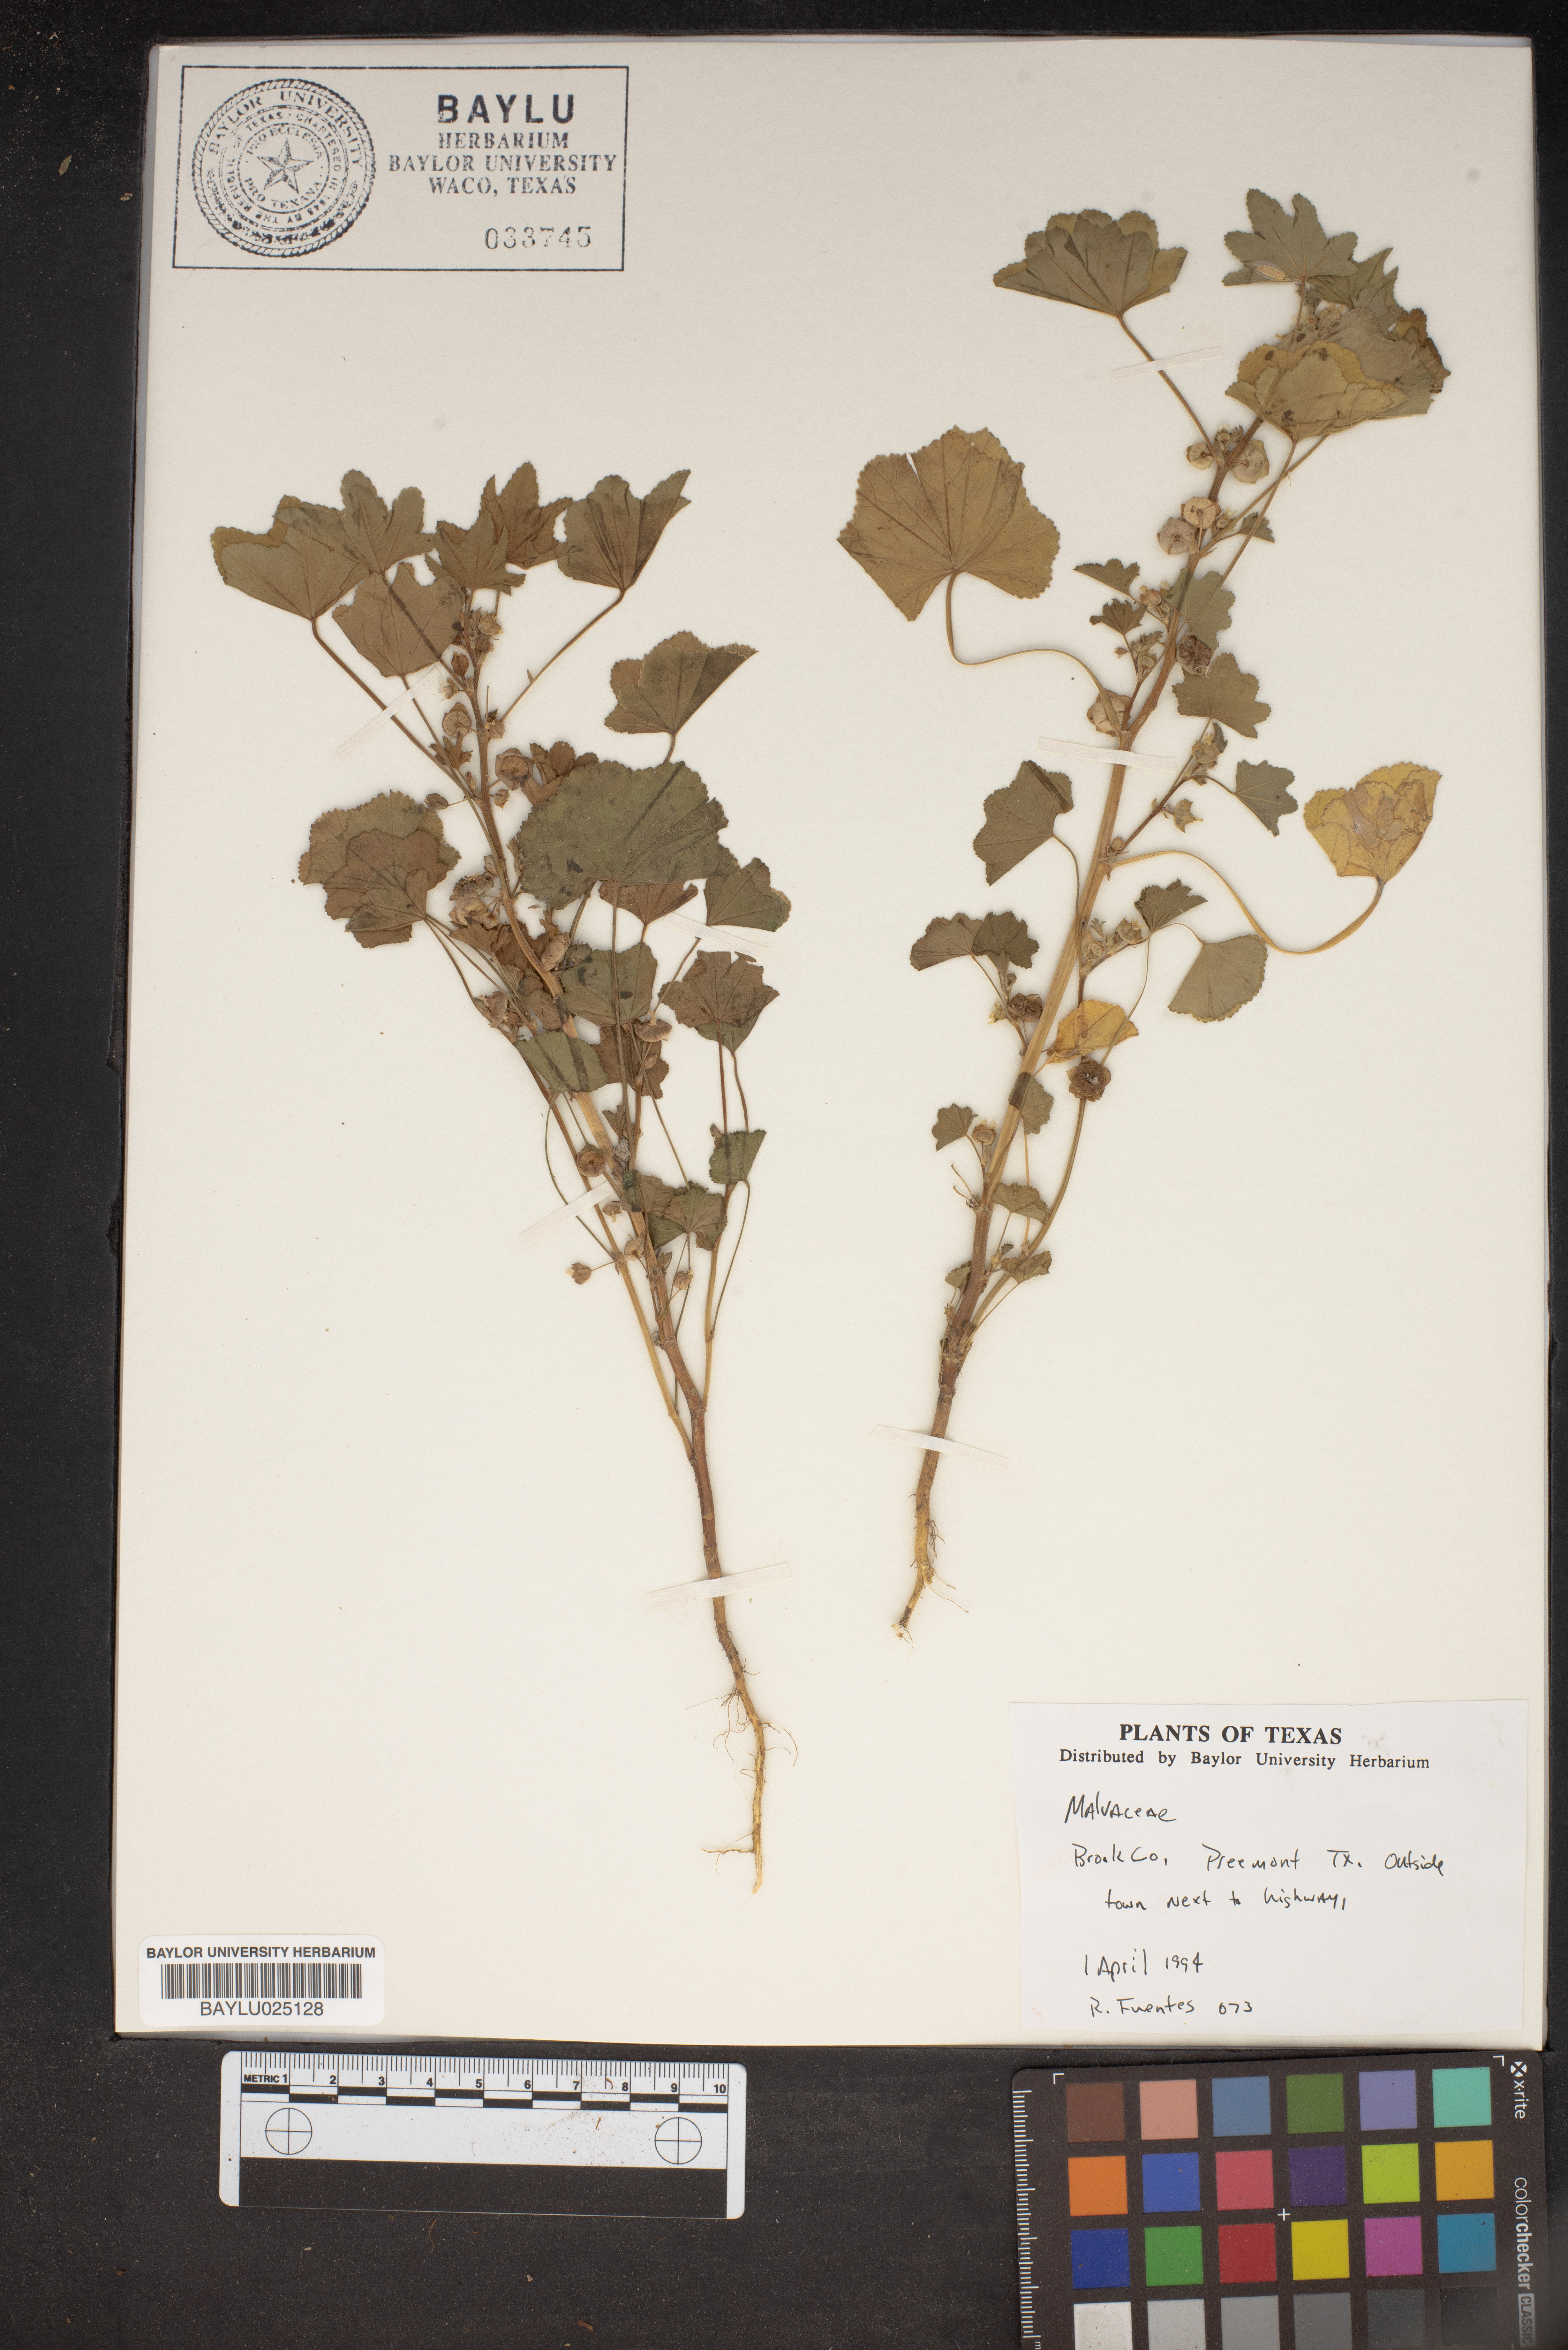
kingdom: Plantae
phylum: Tracheophyta
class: Magnoliopsida
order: Malvales
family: Malvaceae
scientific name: Malvaceae
